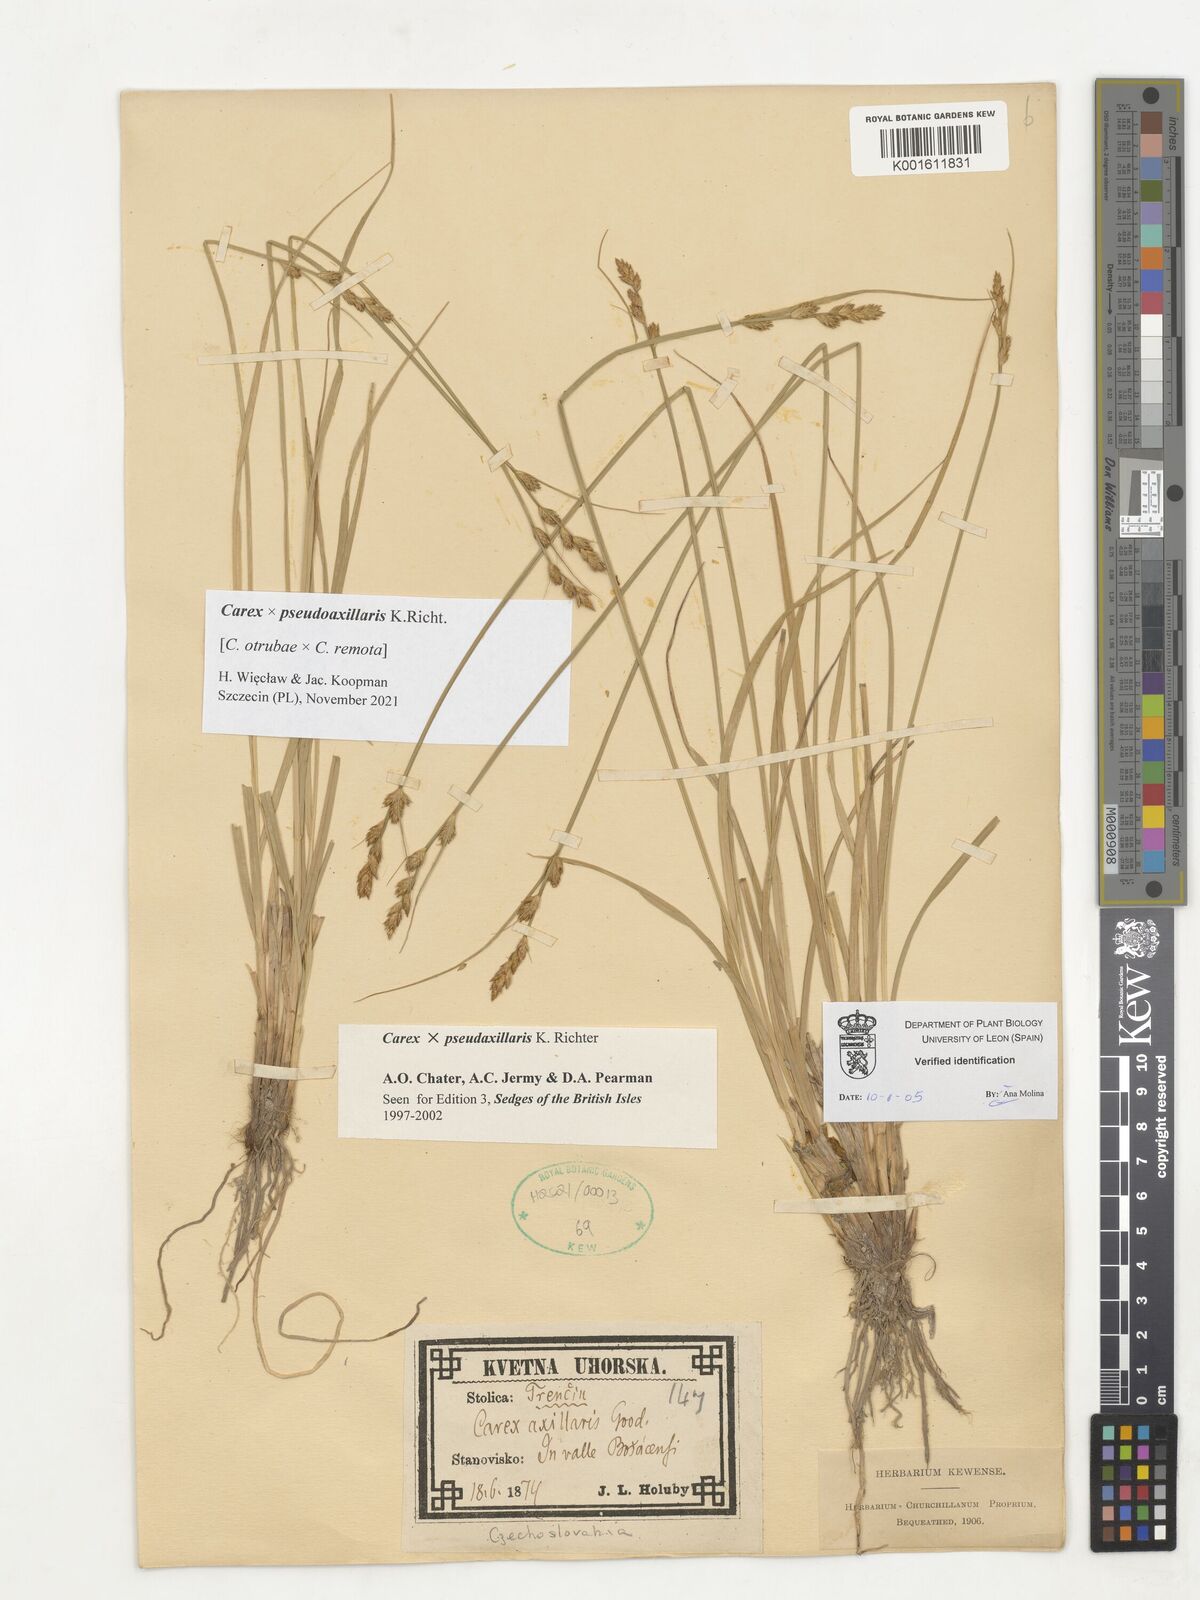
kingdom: Plantae
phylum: Tracheophyta
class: Liliopsida
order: Poales
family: Cyperaceae
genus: Carex
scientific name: Carex pseudoaxillaris
